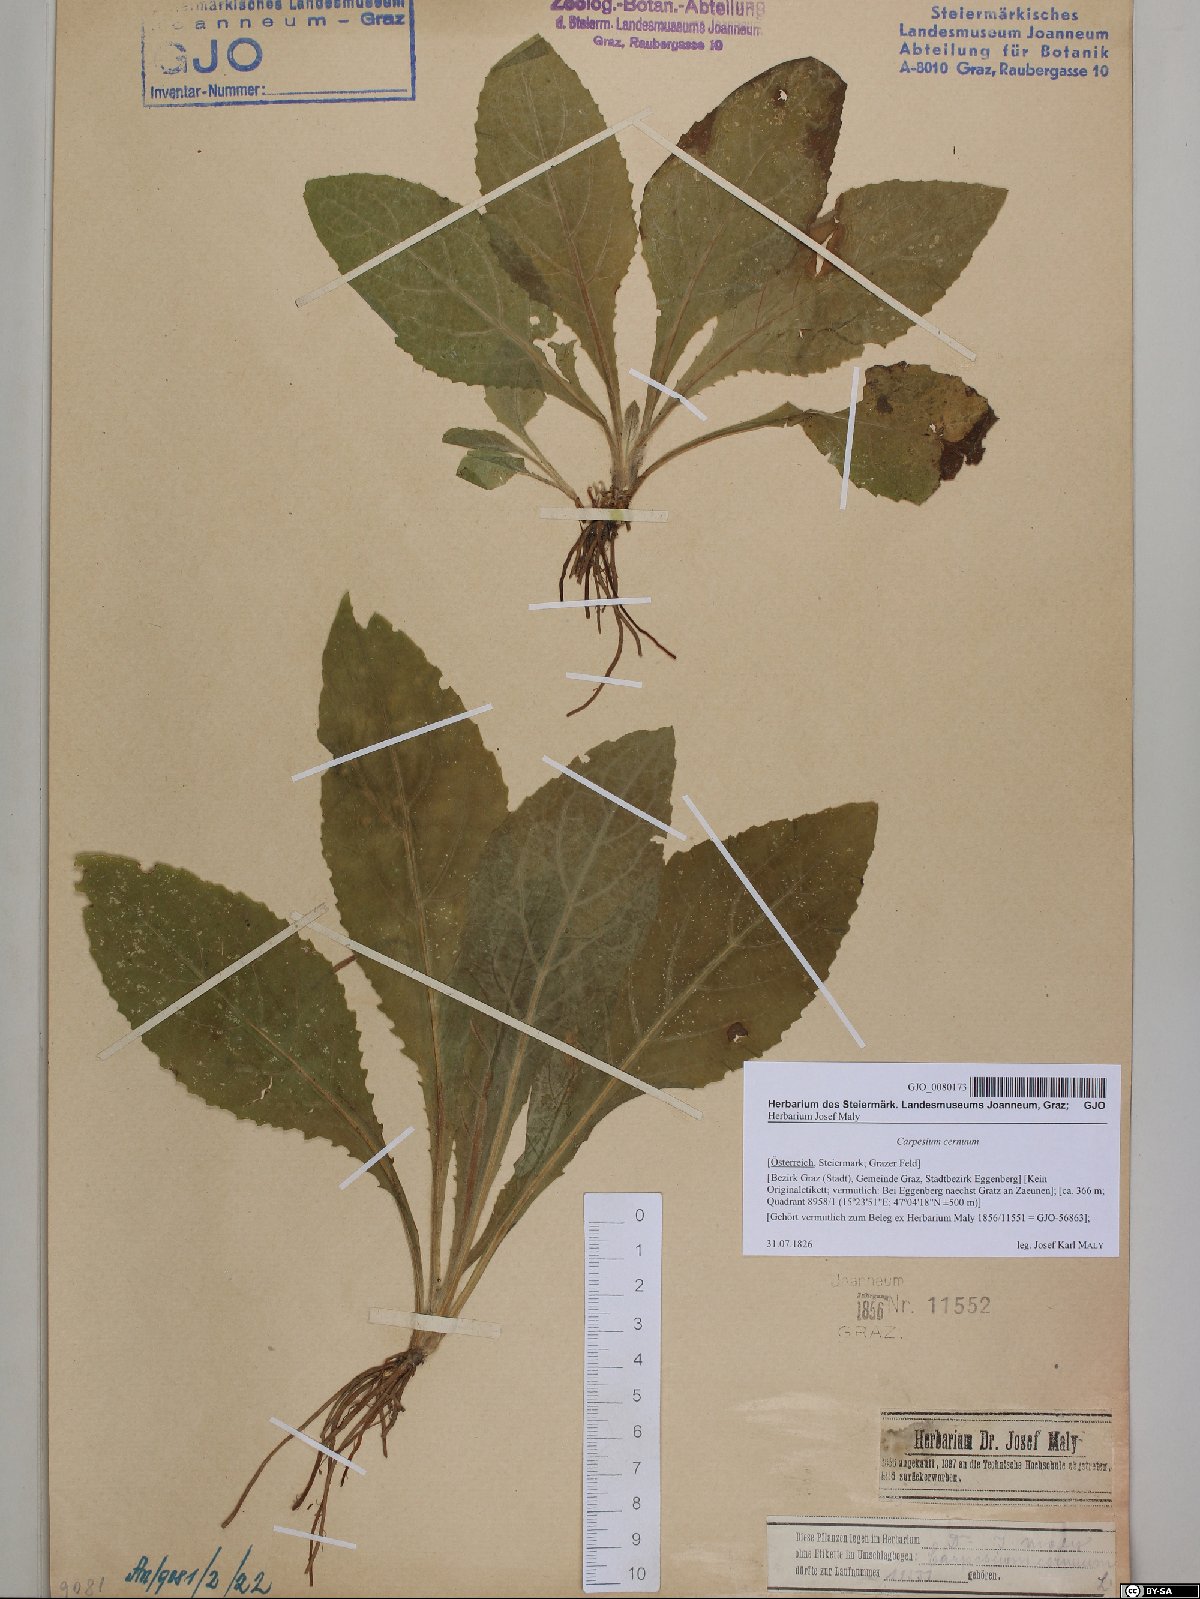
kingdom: Plantae
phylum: Tracheophyta
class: Magnoliopsida
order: Asterales
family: Asteraceae
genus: Carpesium
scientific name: Carpesium cernuum
